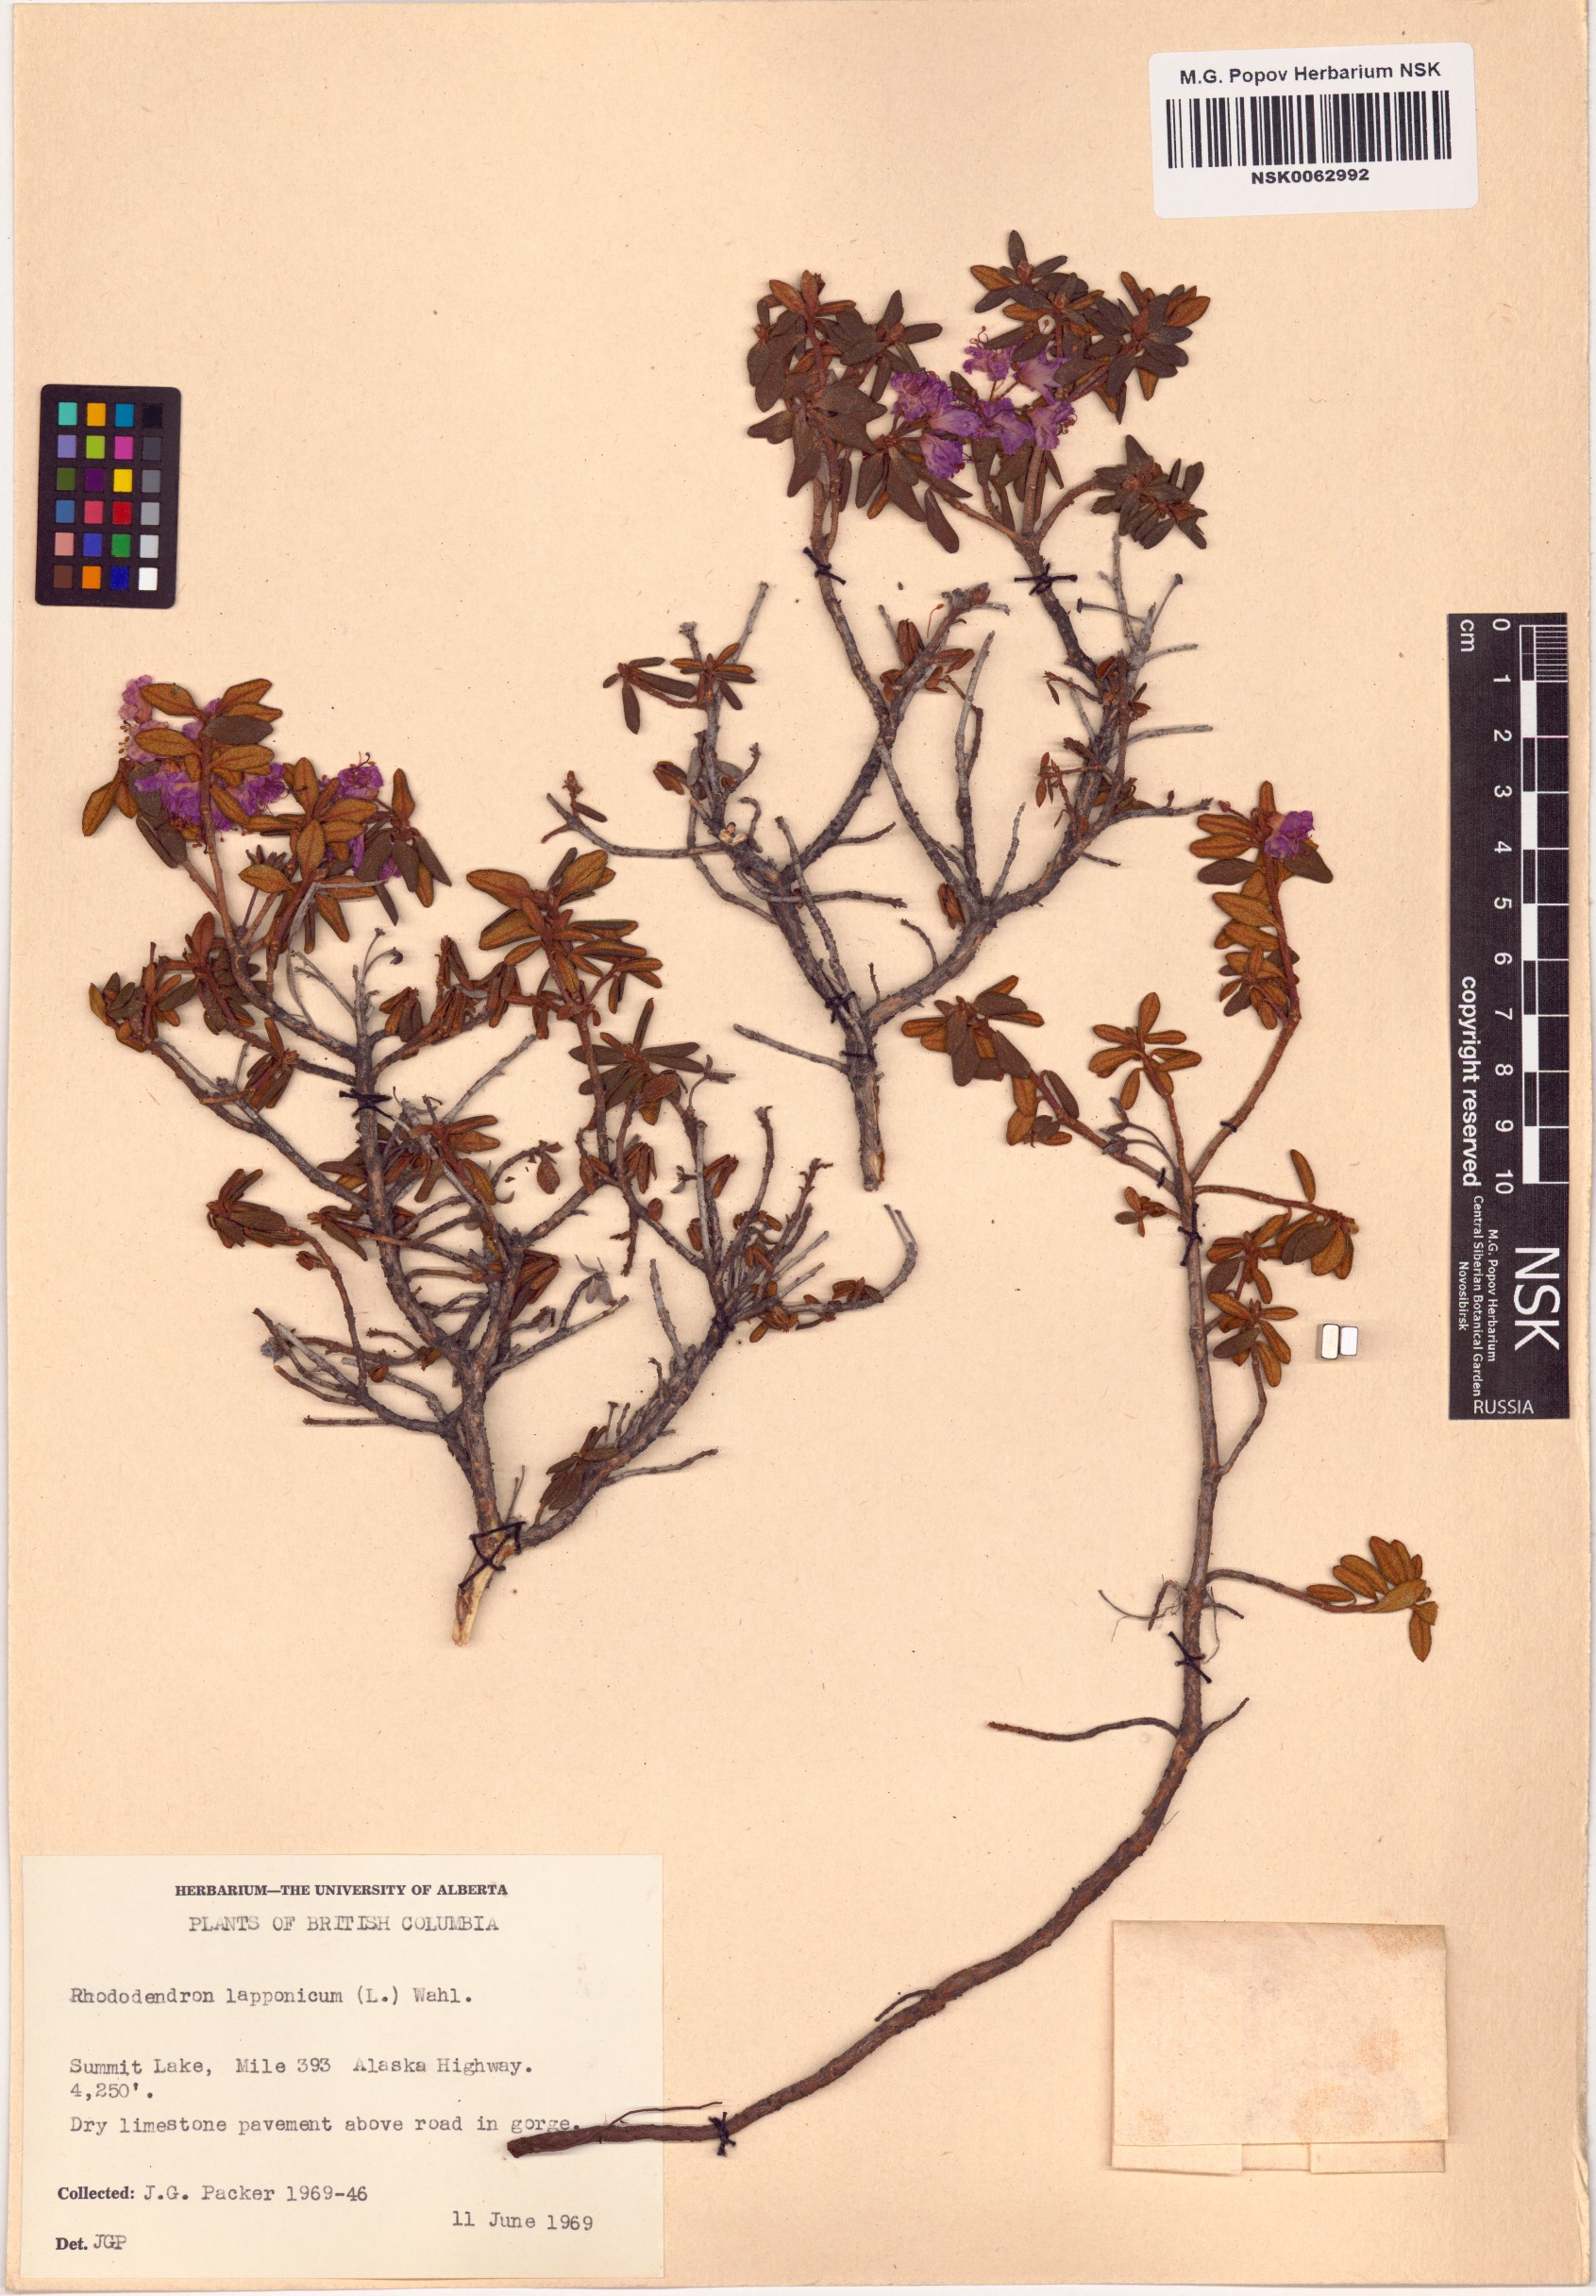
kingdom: Plantae
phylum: Tracheophyta
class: Magnoliopsida
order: Ericales
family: Ericaceae
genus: Rhododendron
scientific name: Rhododendron lapponicum
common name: Lapland rhododendron
